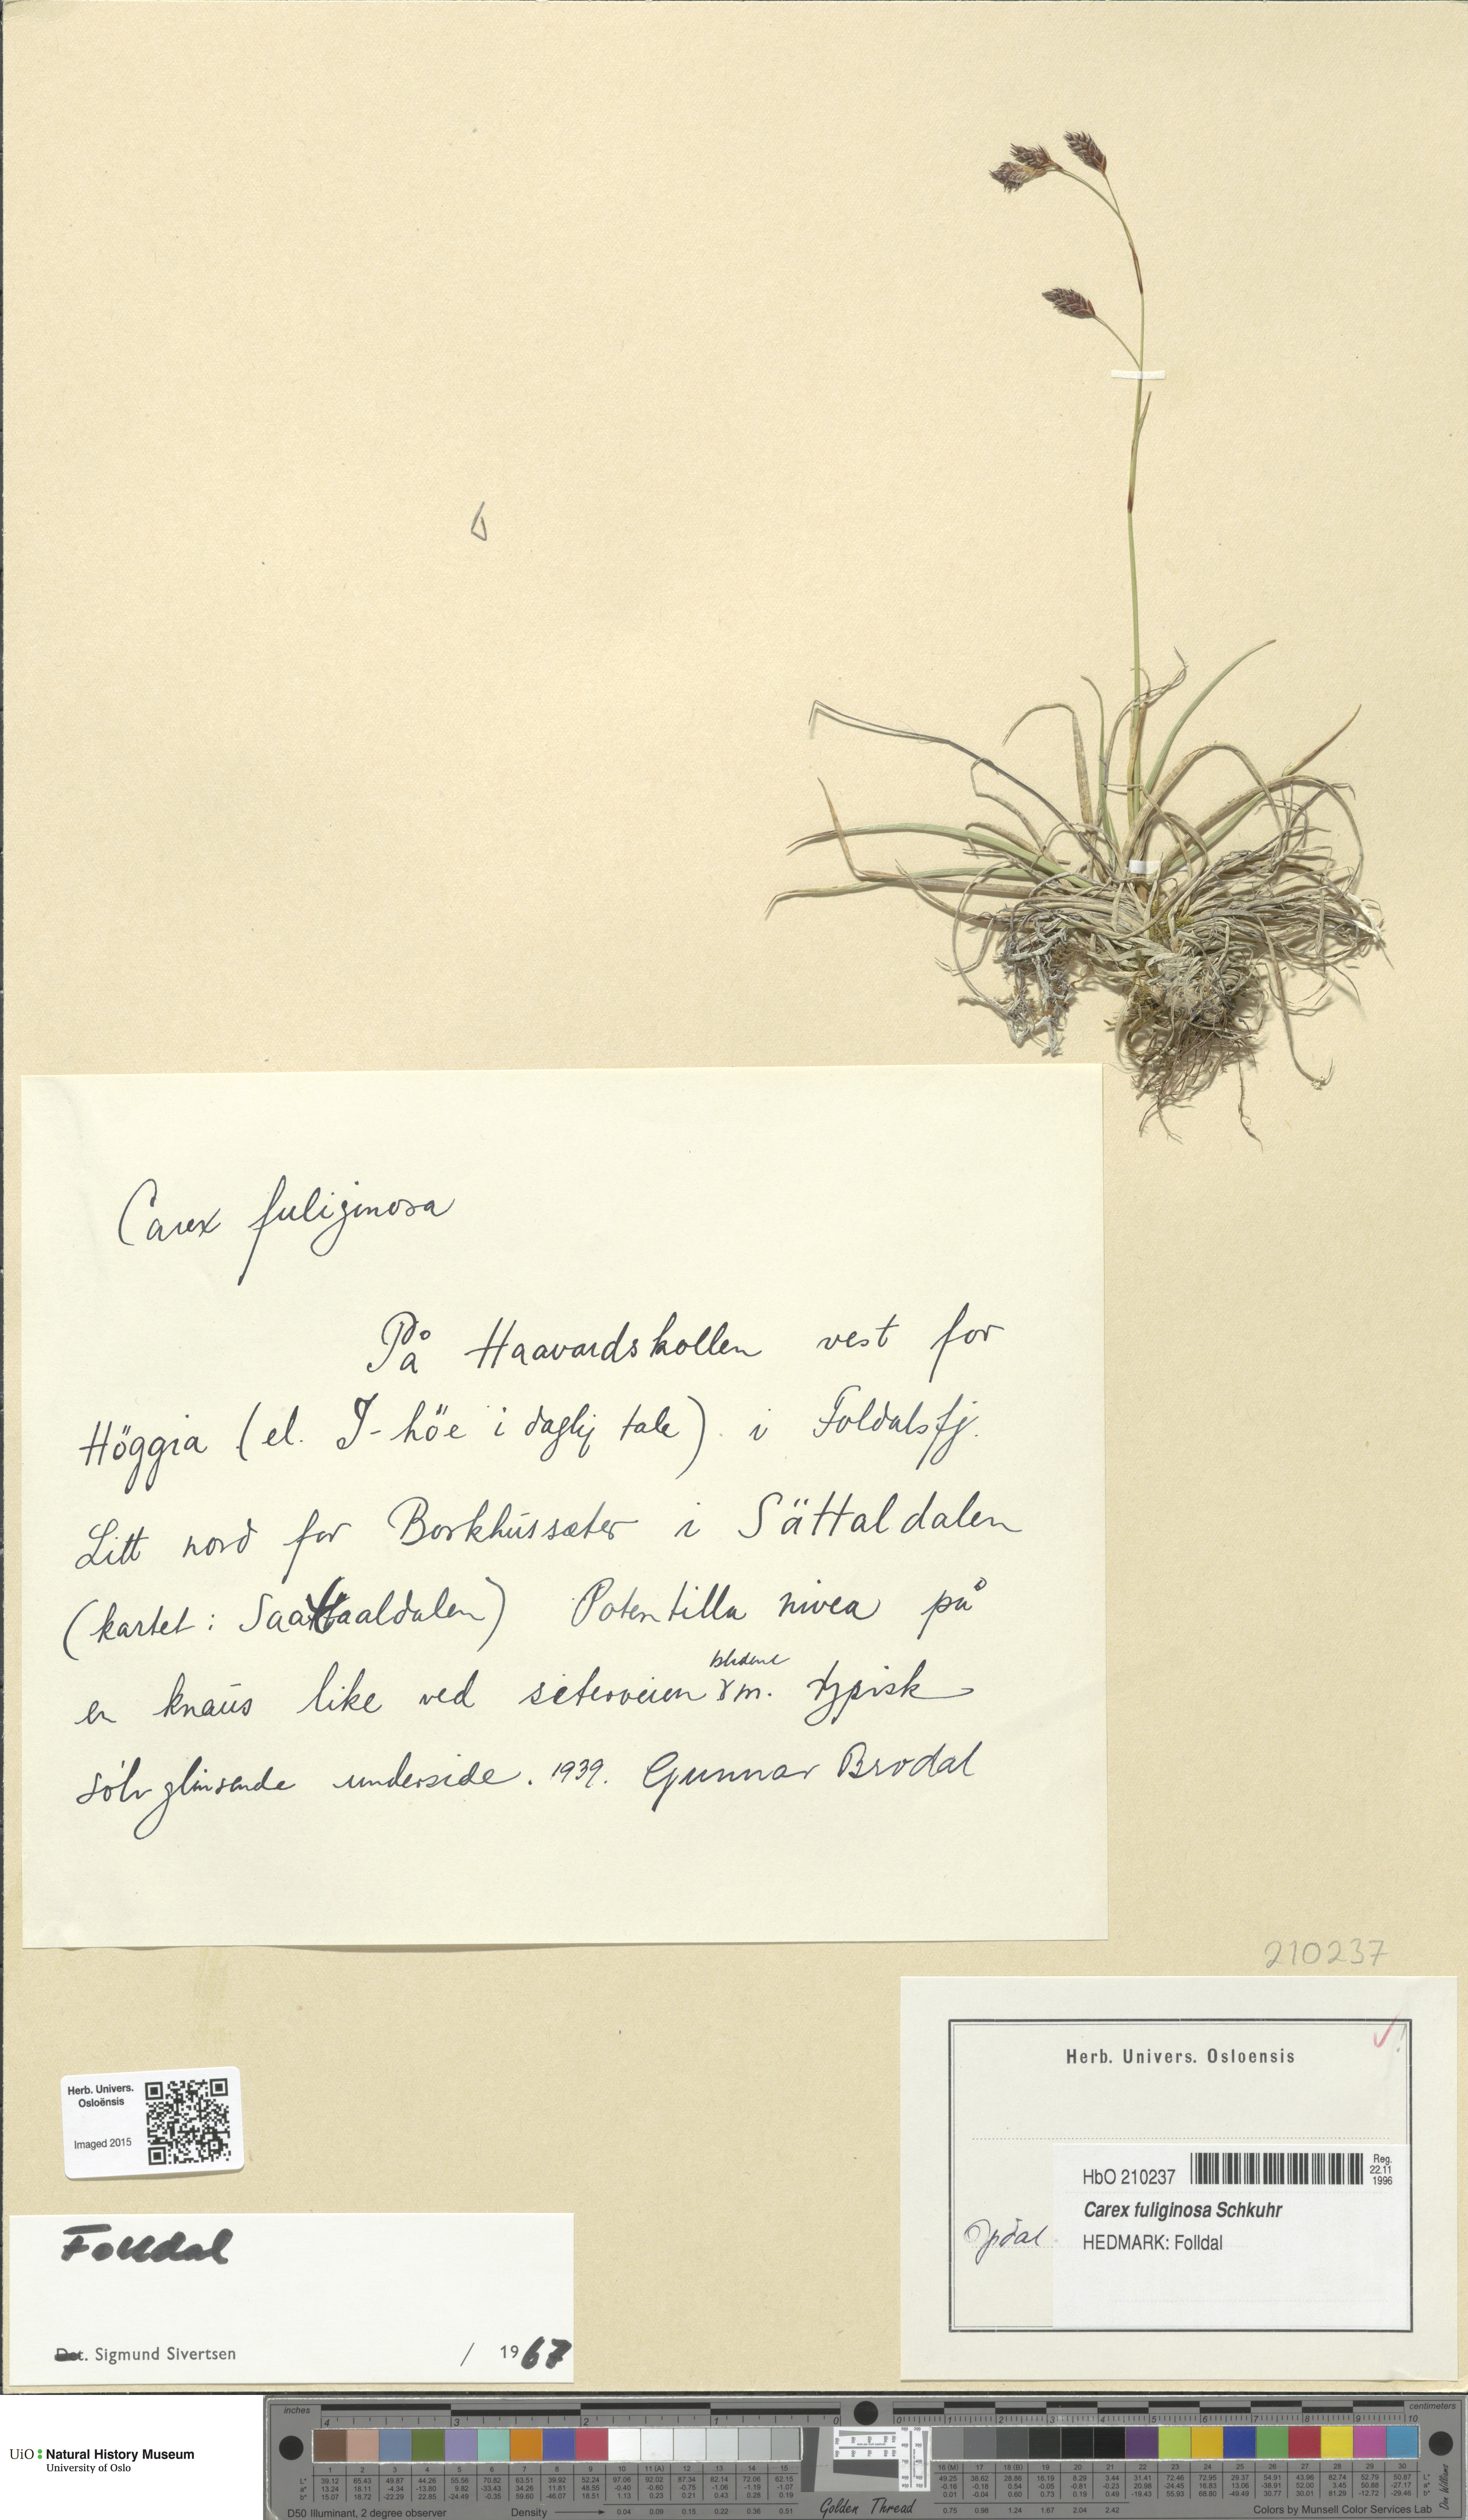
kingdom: Plantae
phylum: Tracheophyta
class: Liliopsida
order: Poales
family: Cyperaceae
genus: Carex
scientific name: Carex fuliginosa
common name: Few-flowered sedge
